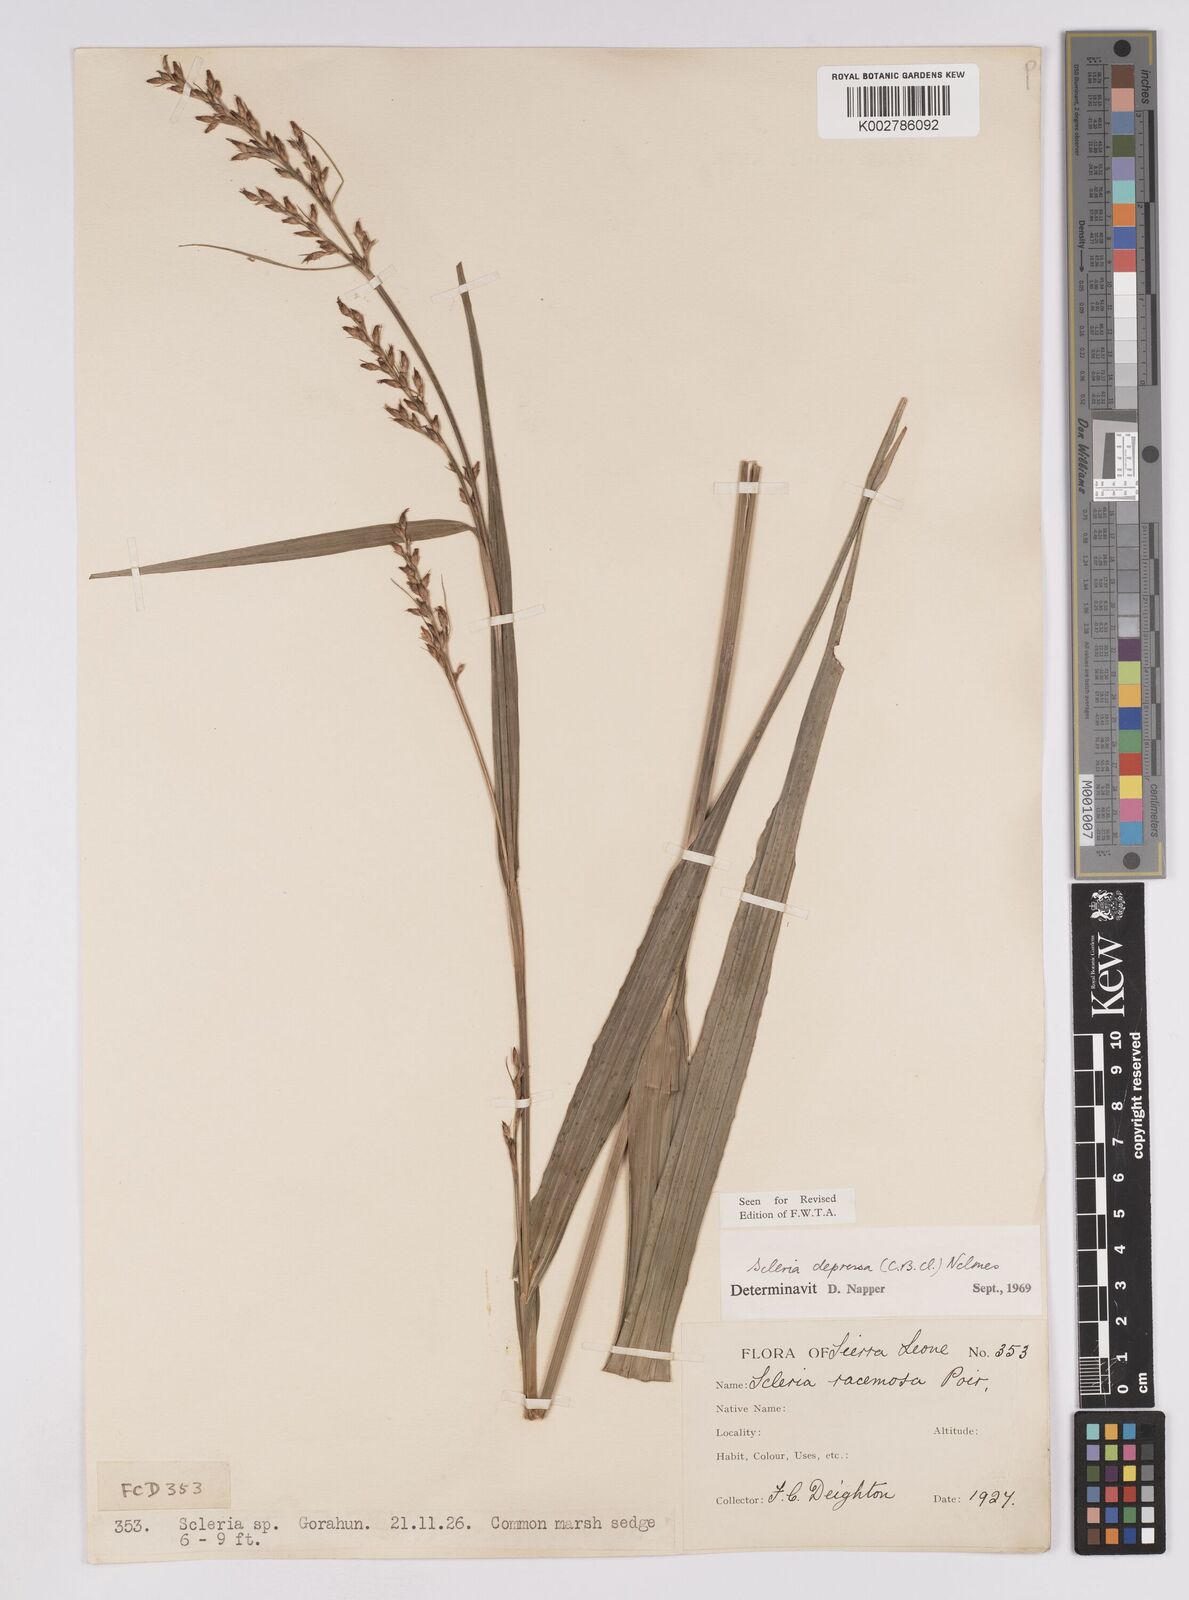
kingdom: Plantae
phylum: Tracheophyta
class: Liliopsida
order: Poales
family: Cyperaceae
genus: Scleria
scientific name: Scleria depressa
